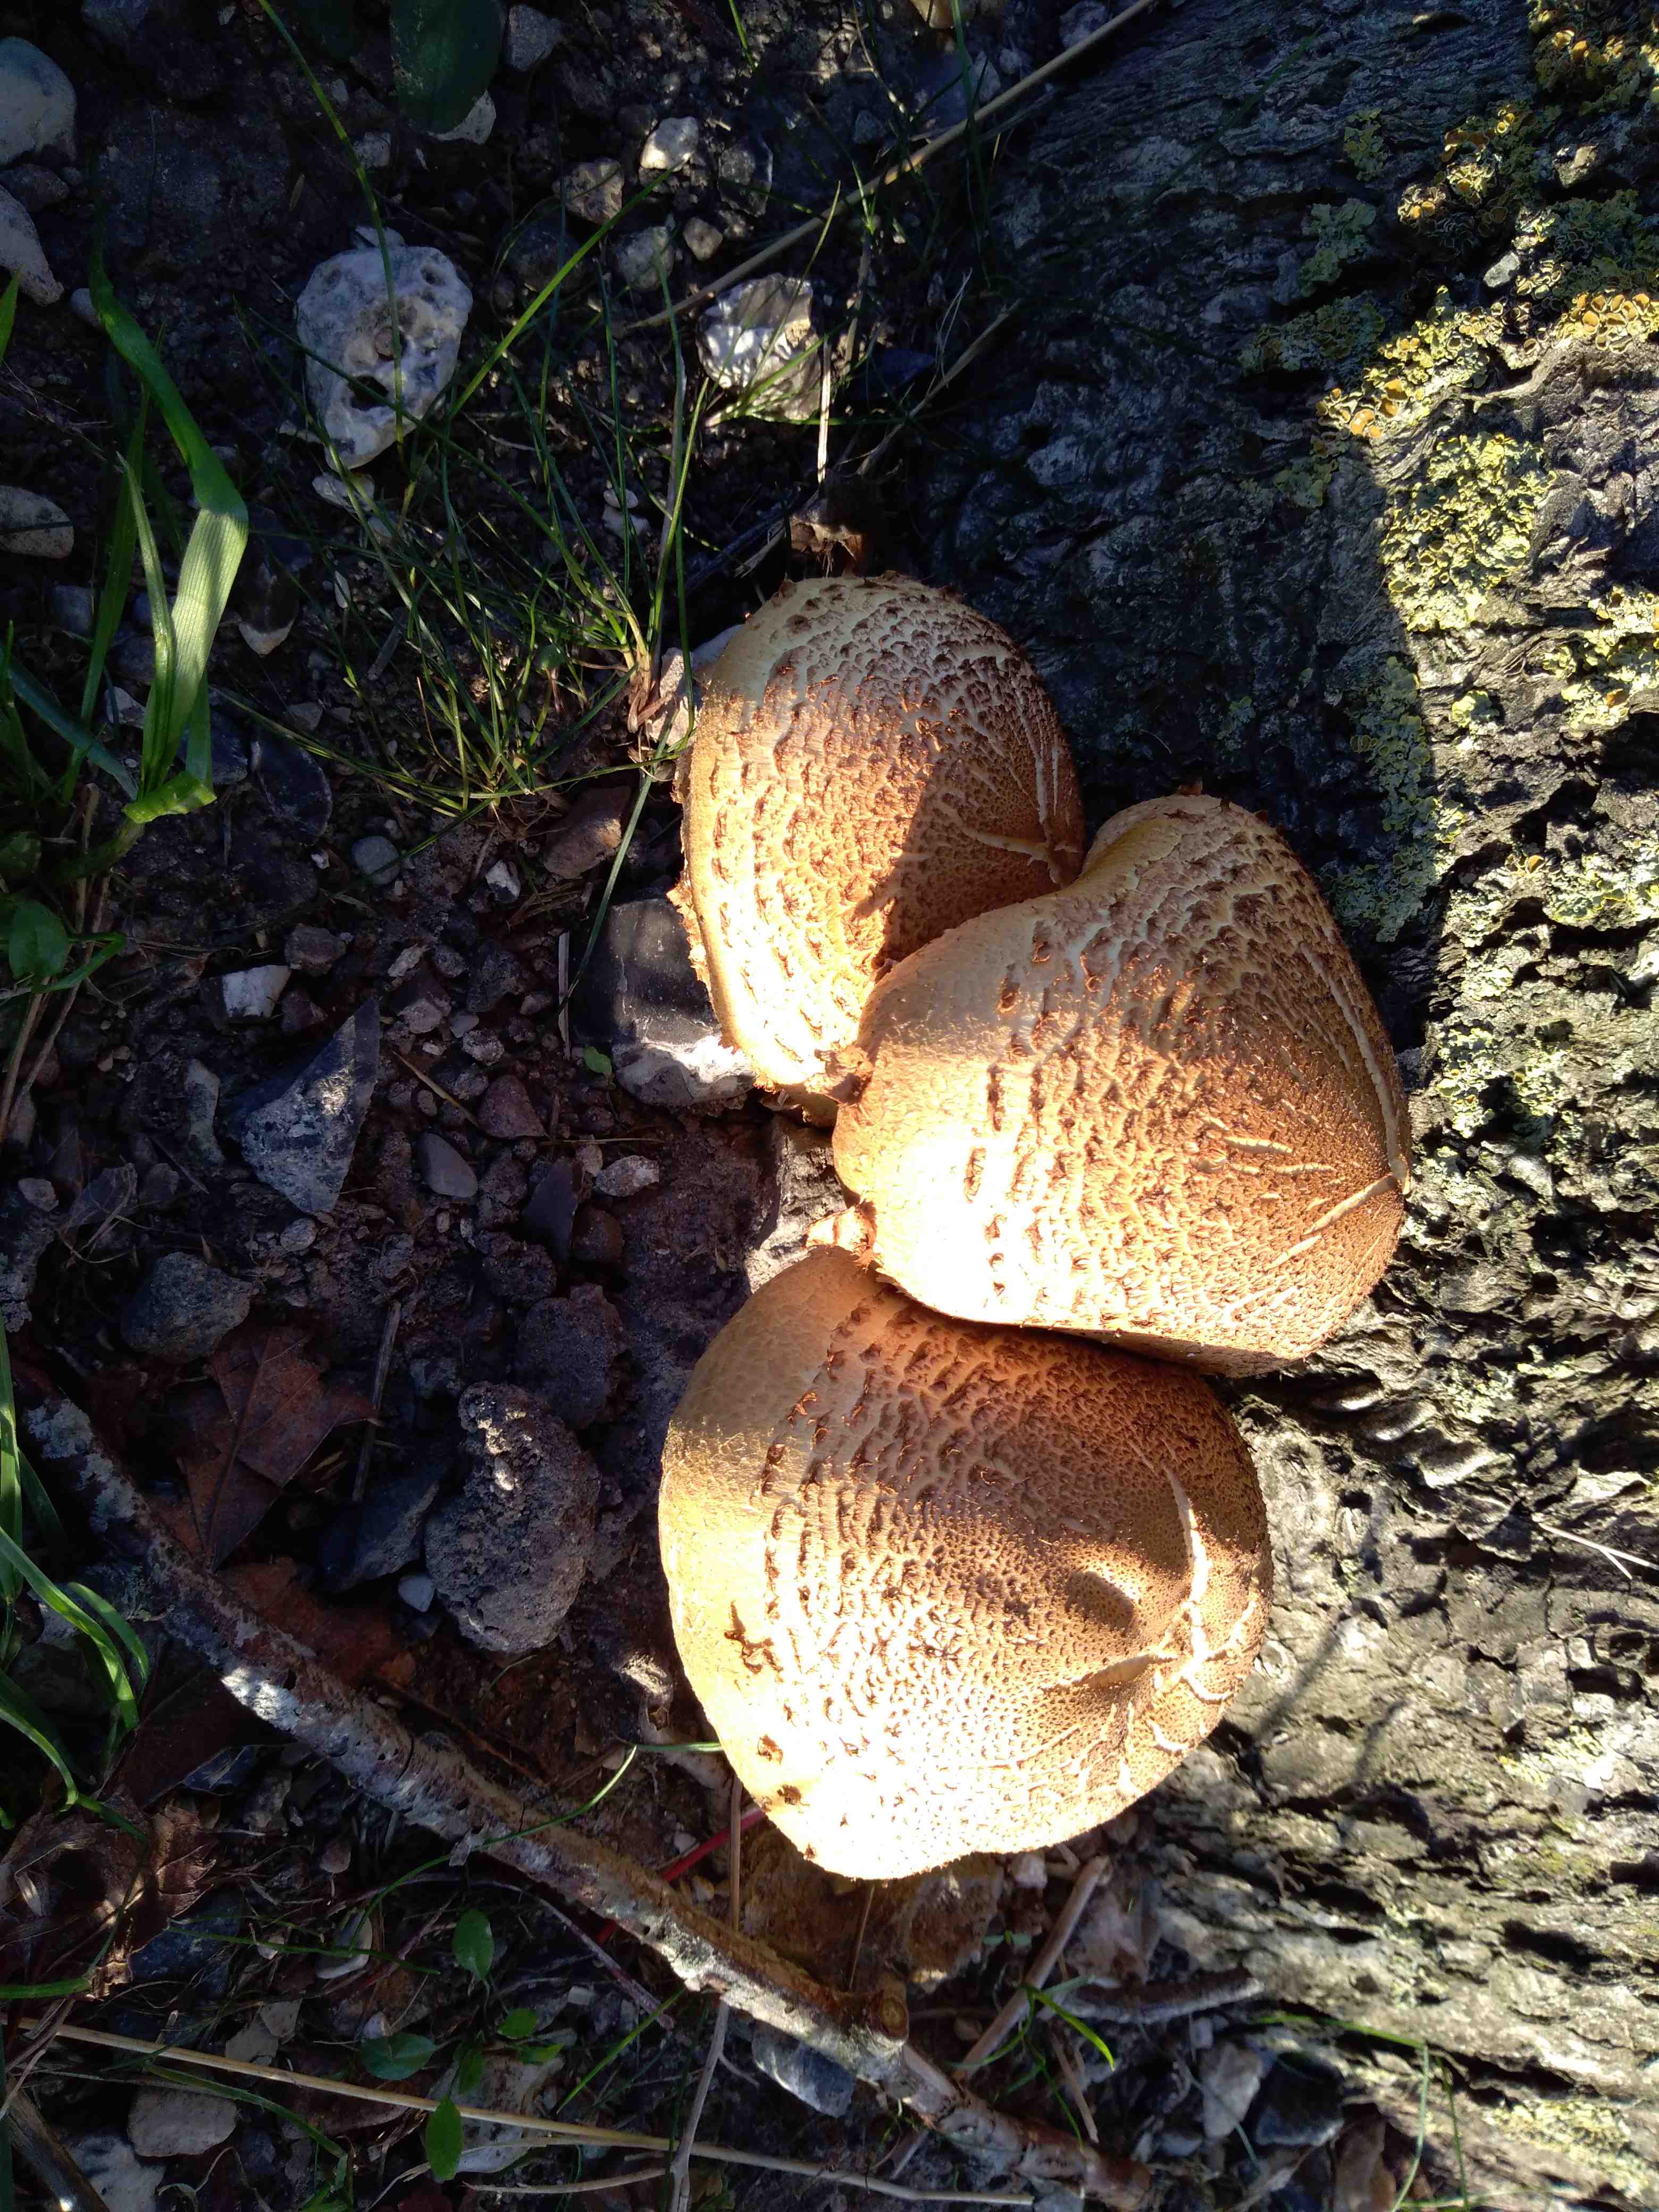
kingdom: Fungi
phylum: Basidiomycota
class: Agaricomycetes
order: Agaricales
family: Strophariaceae
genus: Pholiota
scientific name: Pholiota squarrosa
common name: krumskællet skælhat
